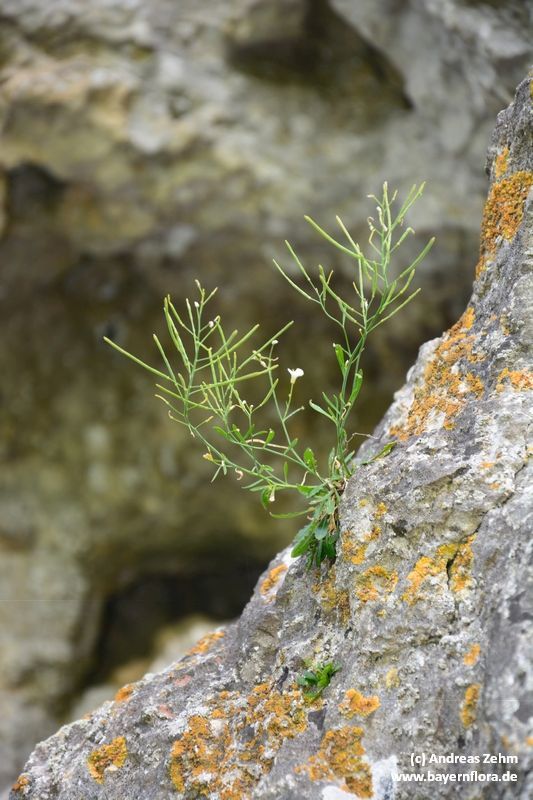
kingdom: Plantae
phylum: Tracheophyta
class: Magnoliopsida
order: Brassicales
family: Brassicaceae
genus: Arabidopsis
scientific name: Arabidopsis arenosa
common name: Sand rock-cress
